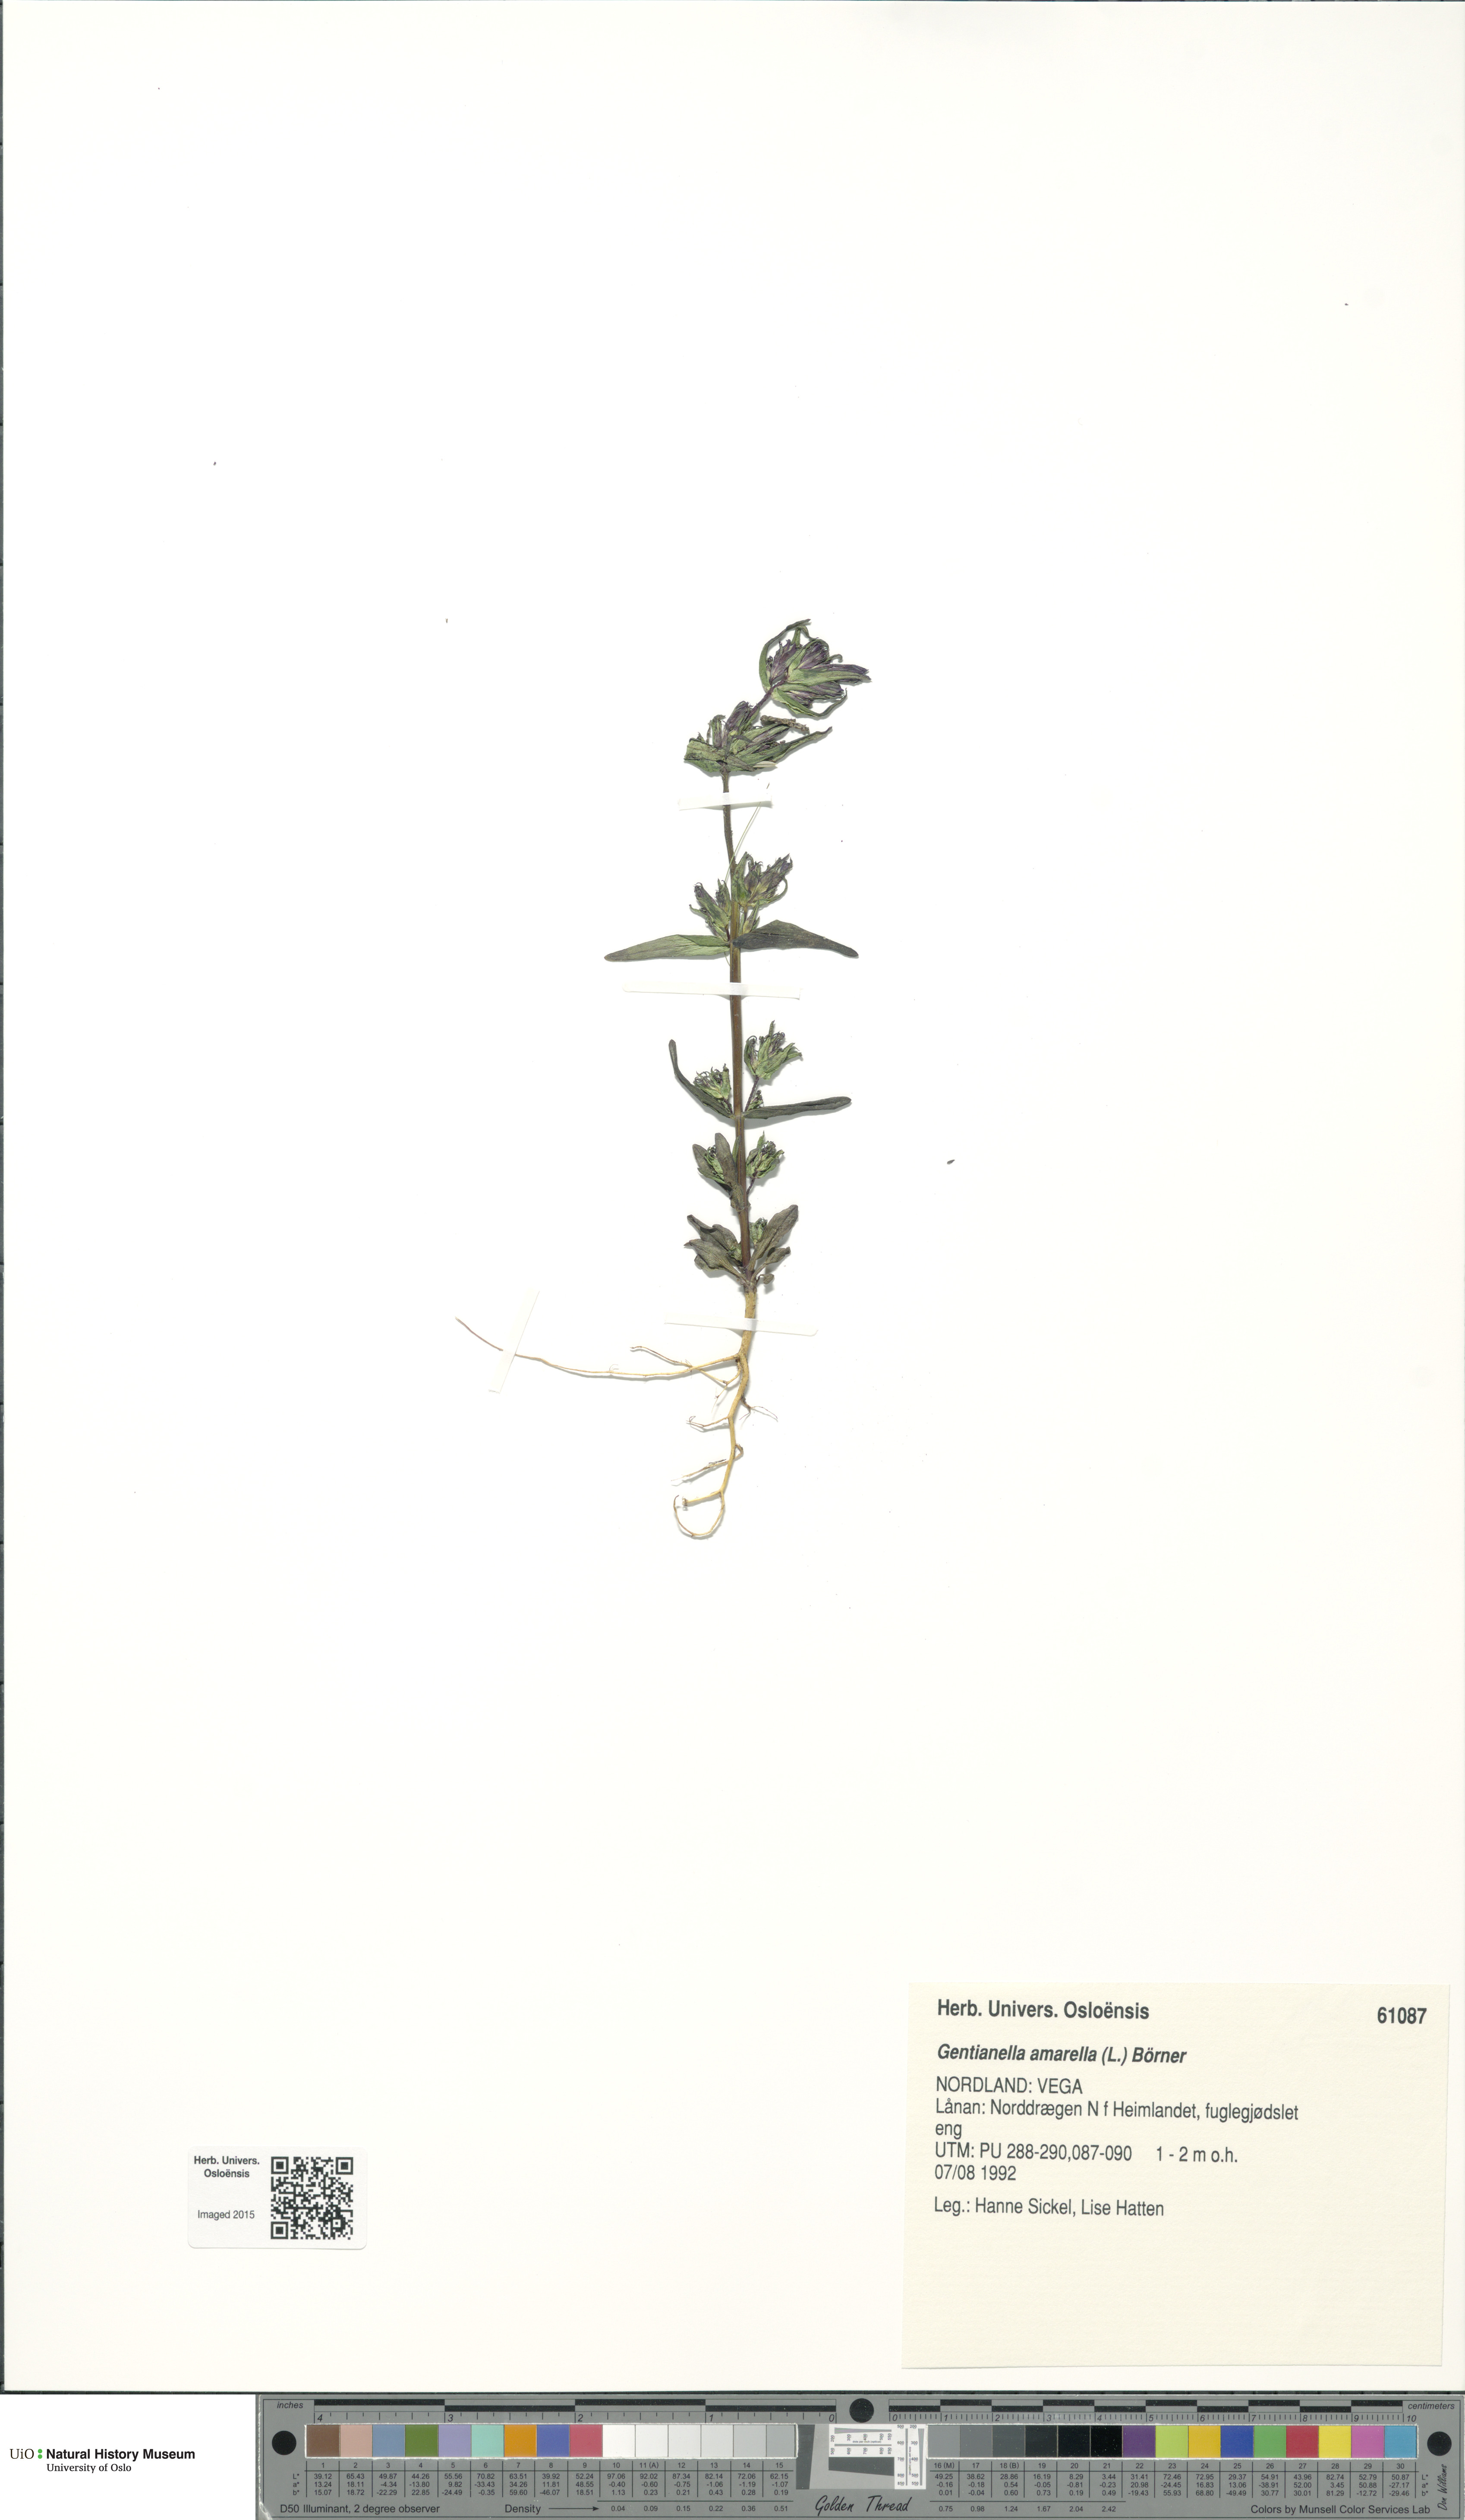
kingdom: Plantae
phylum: Tracheophyta
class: Magnoliopsida
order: Gentianales
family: Gentianaceae
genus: Gentianella
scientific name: Gentianella amarella
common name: Autumn gentian
